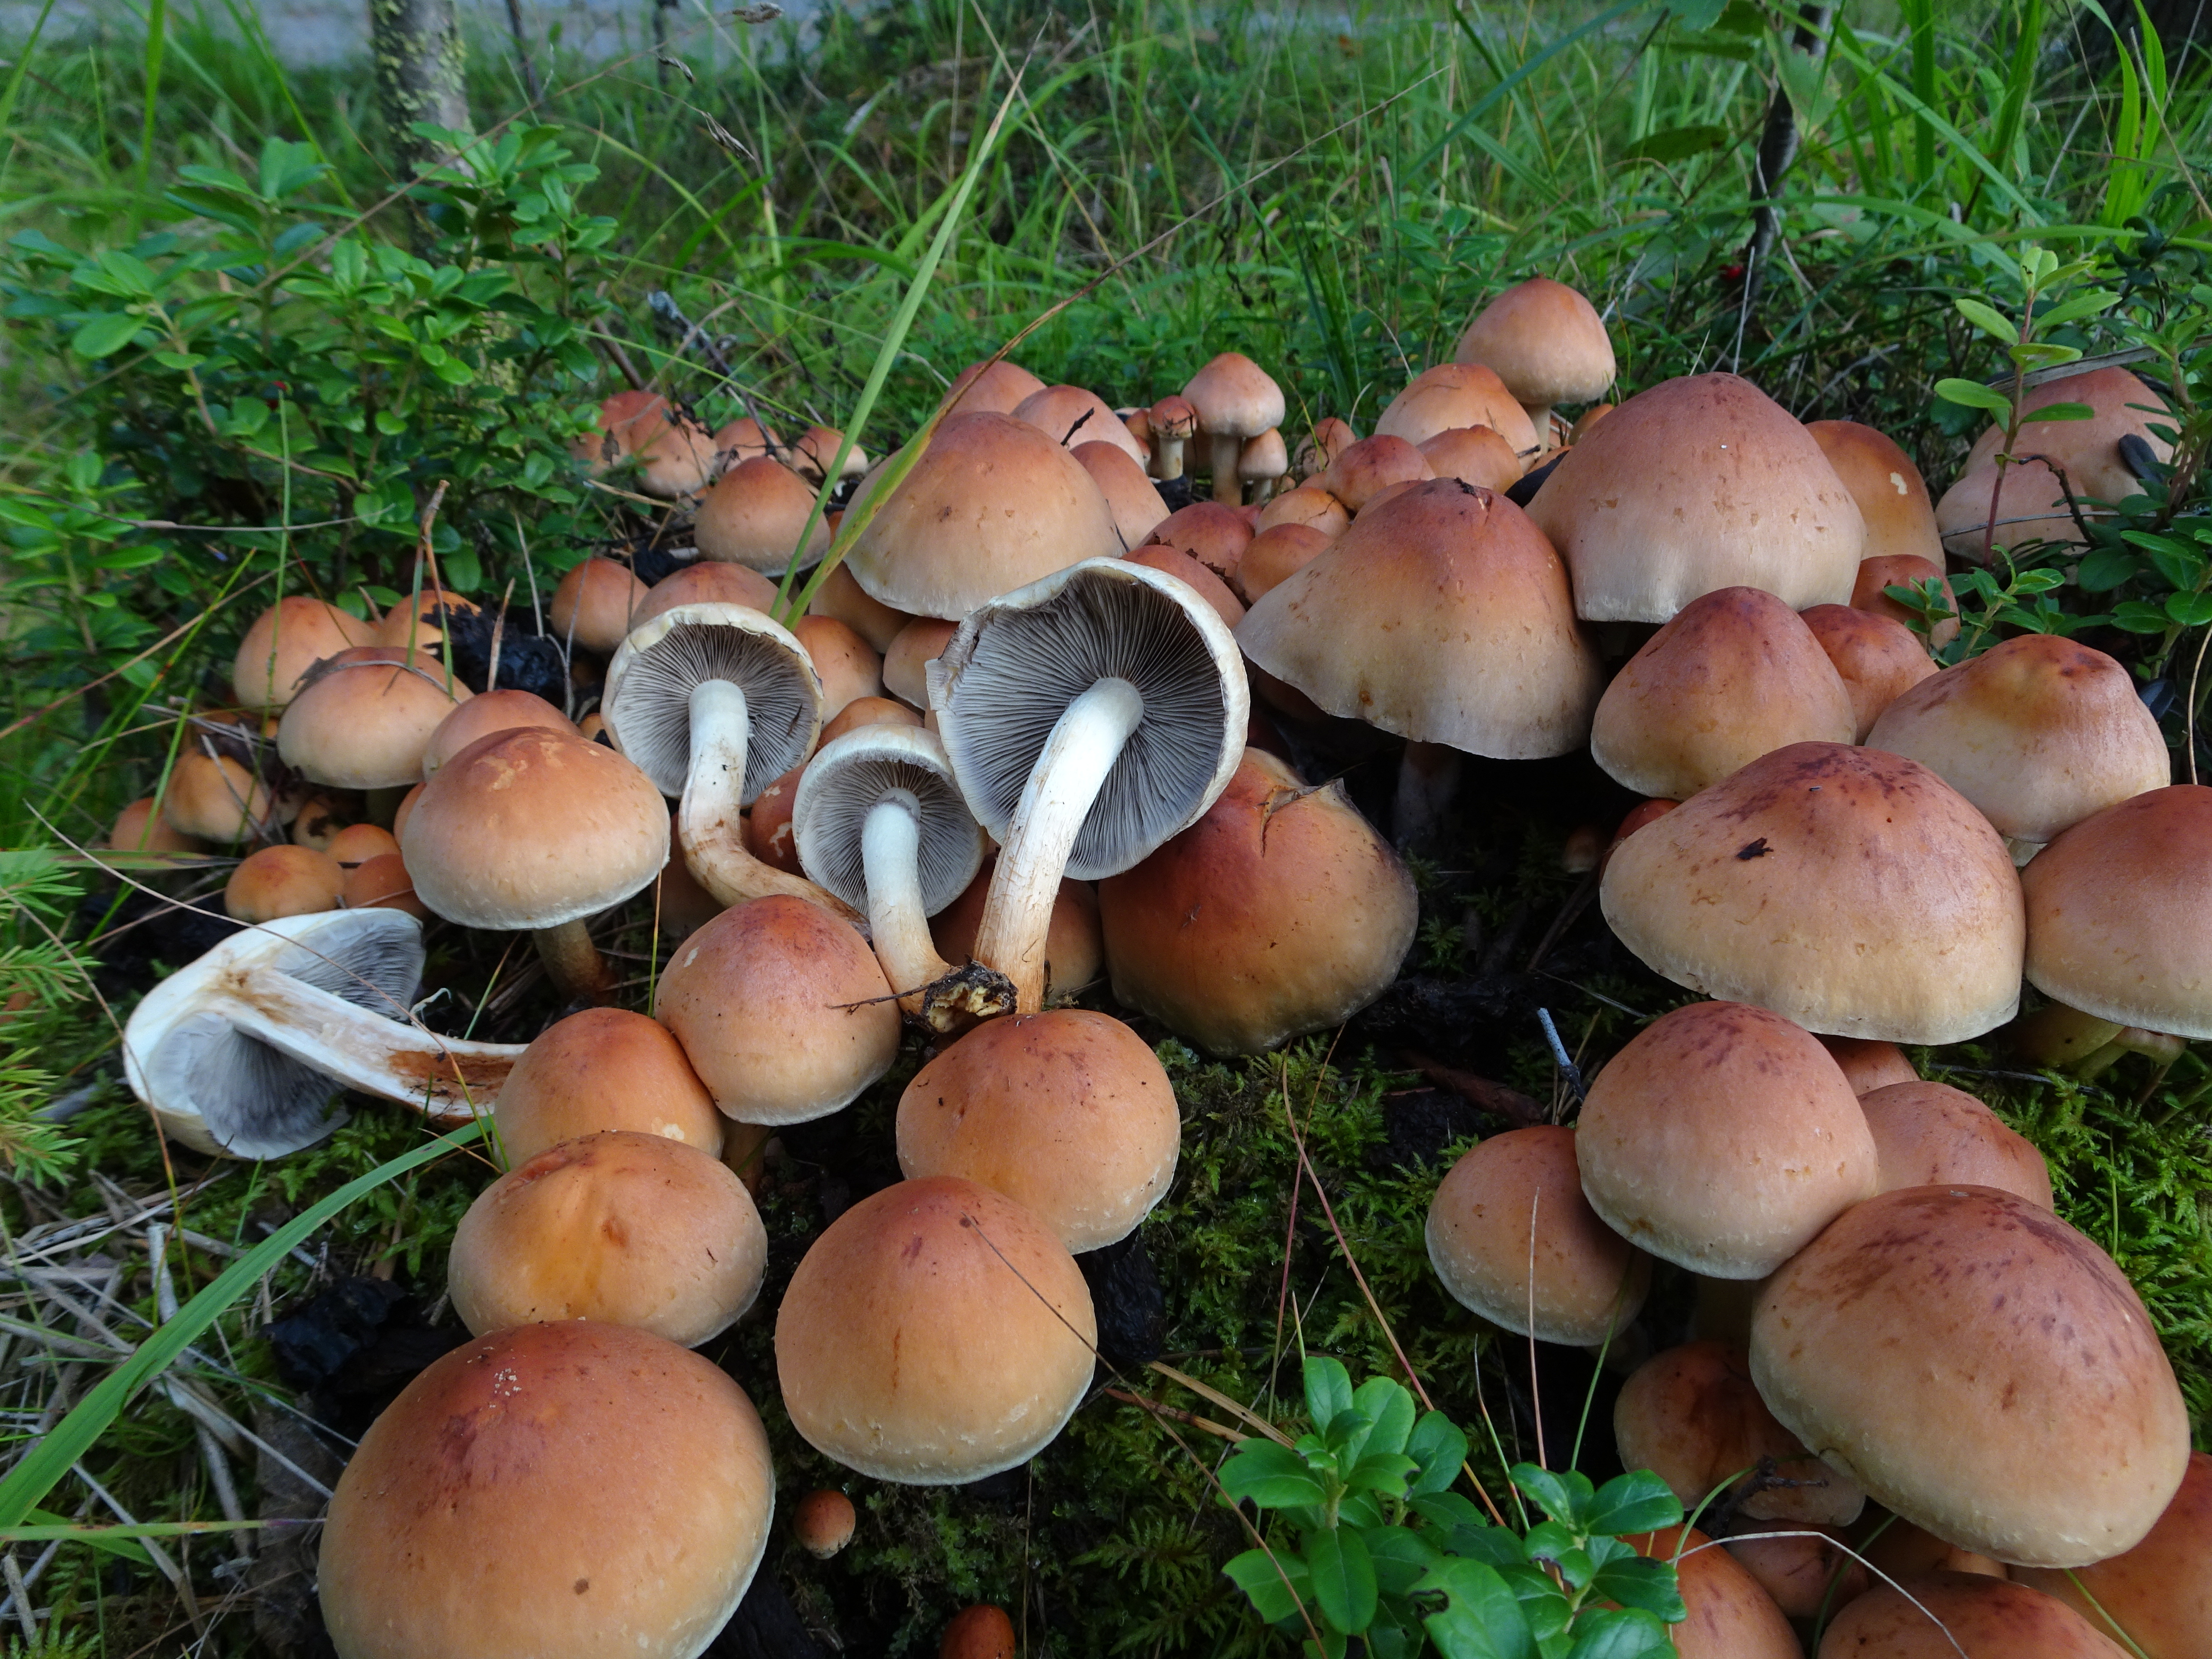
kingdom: Fungi
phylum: Basidiomycota
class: Agaricomycetes
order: Agaricales
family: Strophariaceae
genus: Hypholoma
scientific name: Hypholoma lateritium
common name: Brick caps
